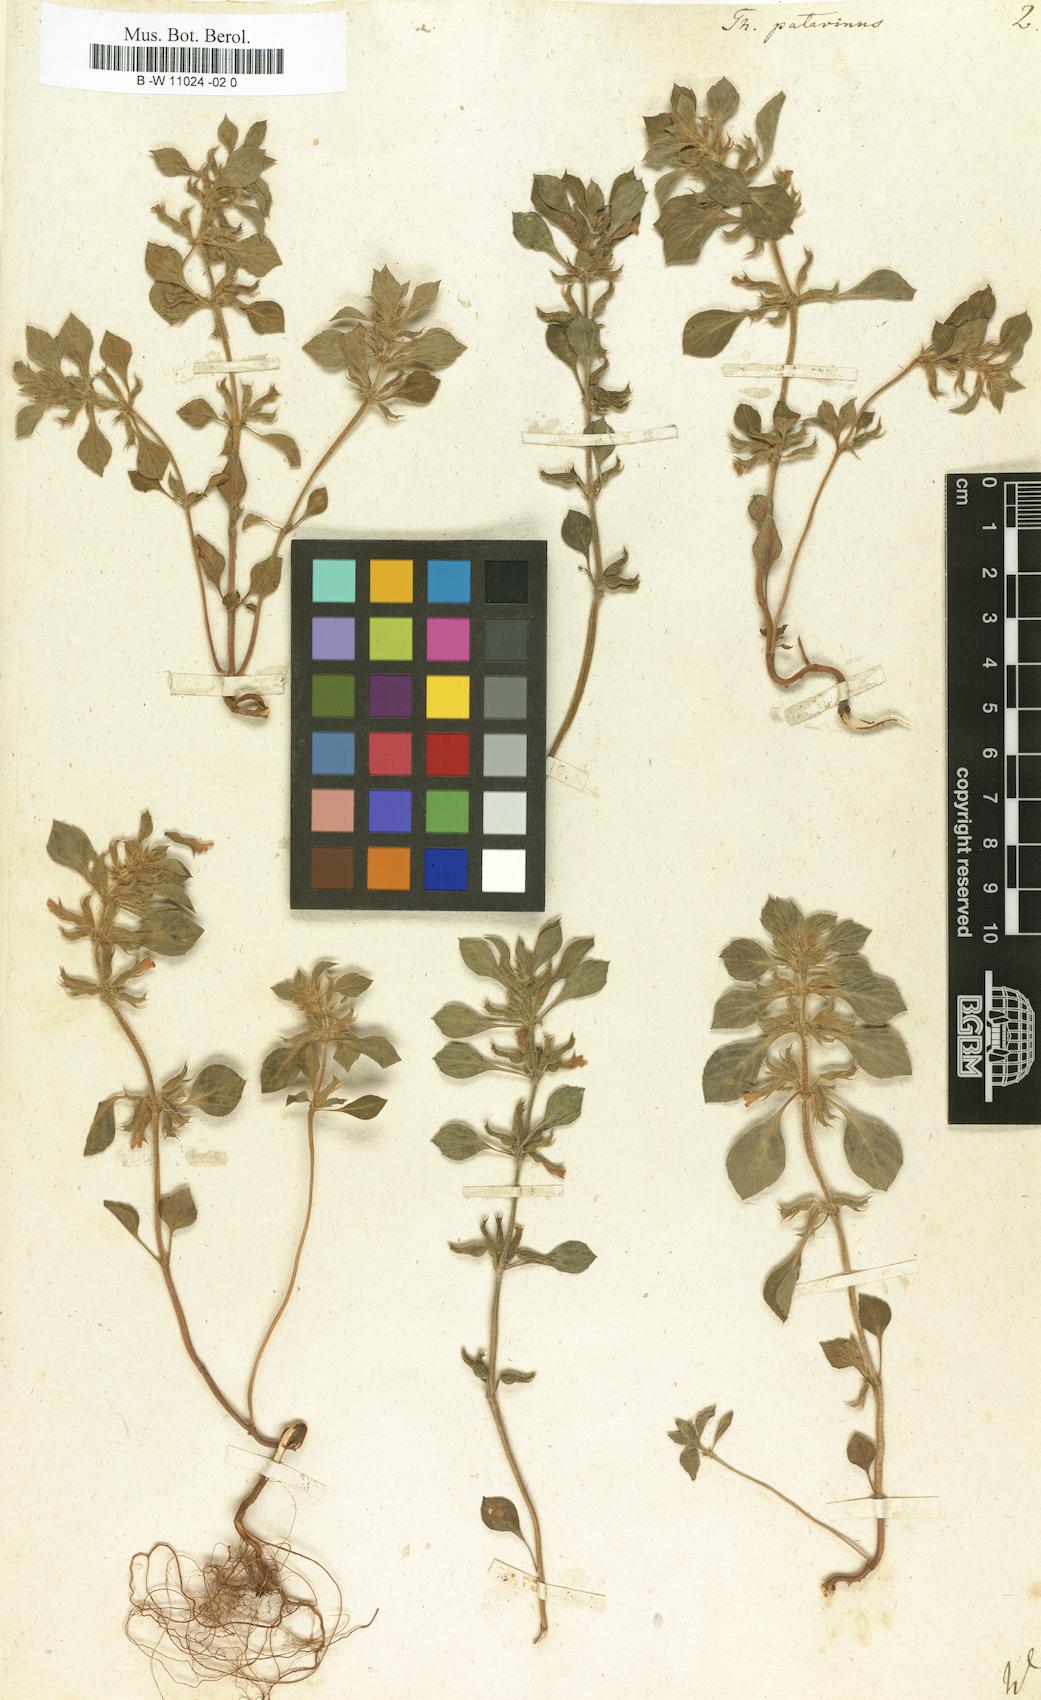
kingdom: Plantae
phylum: Tracheophyta
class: Magnoliopsida
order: Lamiales
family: Lamiaceae
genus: Clinopodium
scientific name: Clinopodium alpinum
